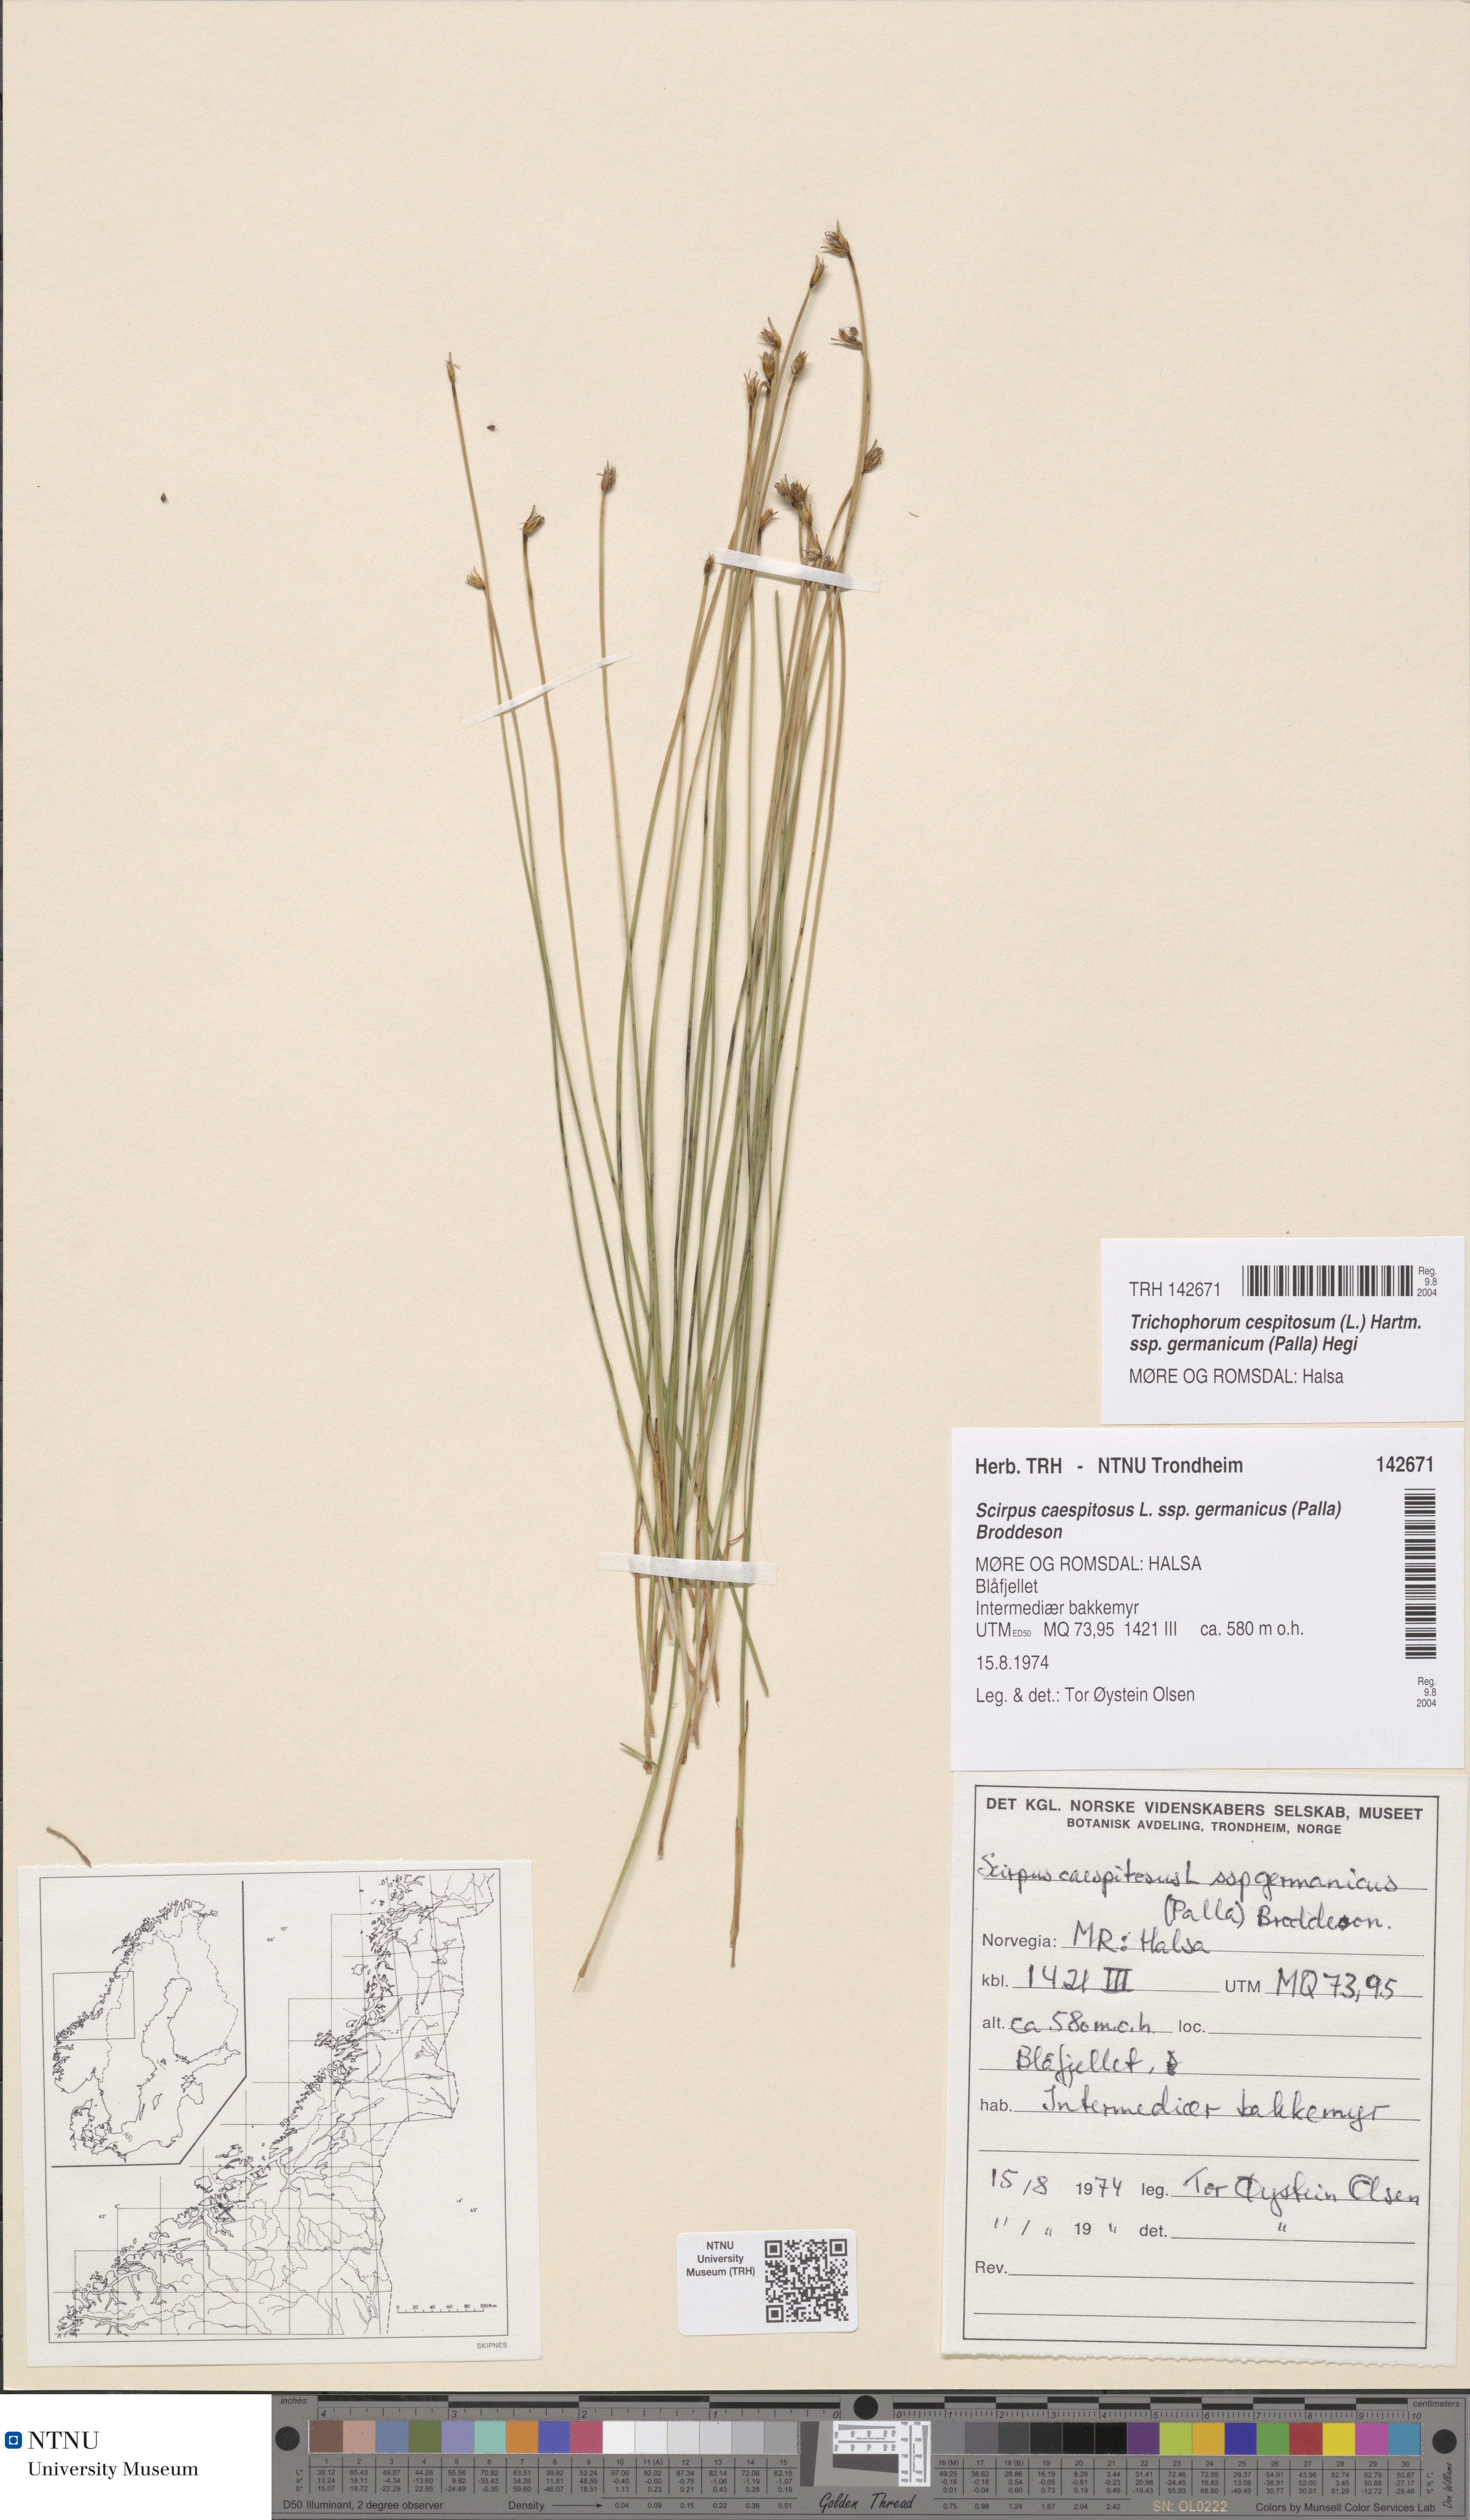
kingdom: Plantae
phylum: Tracheophyta
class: Liliopsida
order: Poales
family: Cyperaceae
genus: Trichophorum
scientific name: Trichophorum cespitosum
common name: Cespitose bulrush
